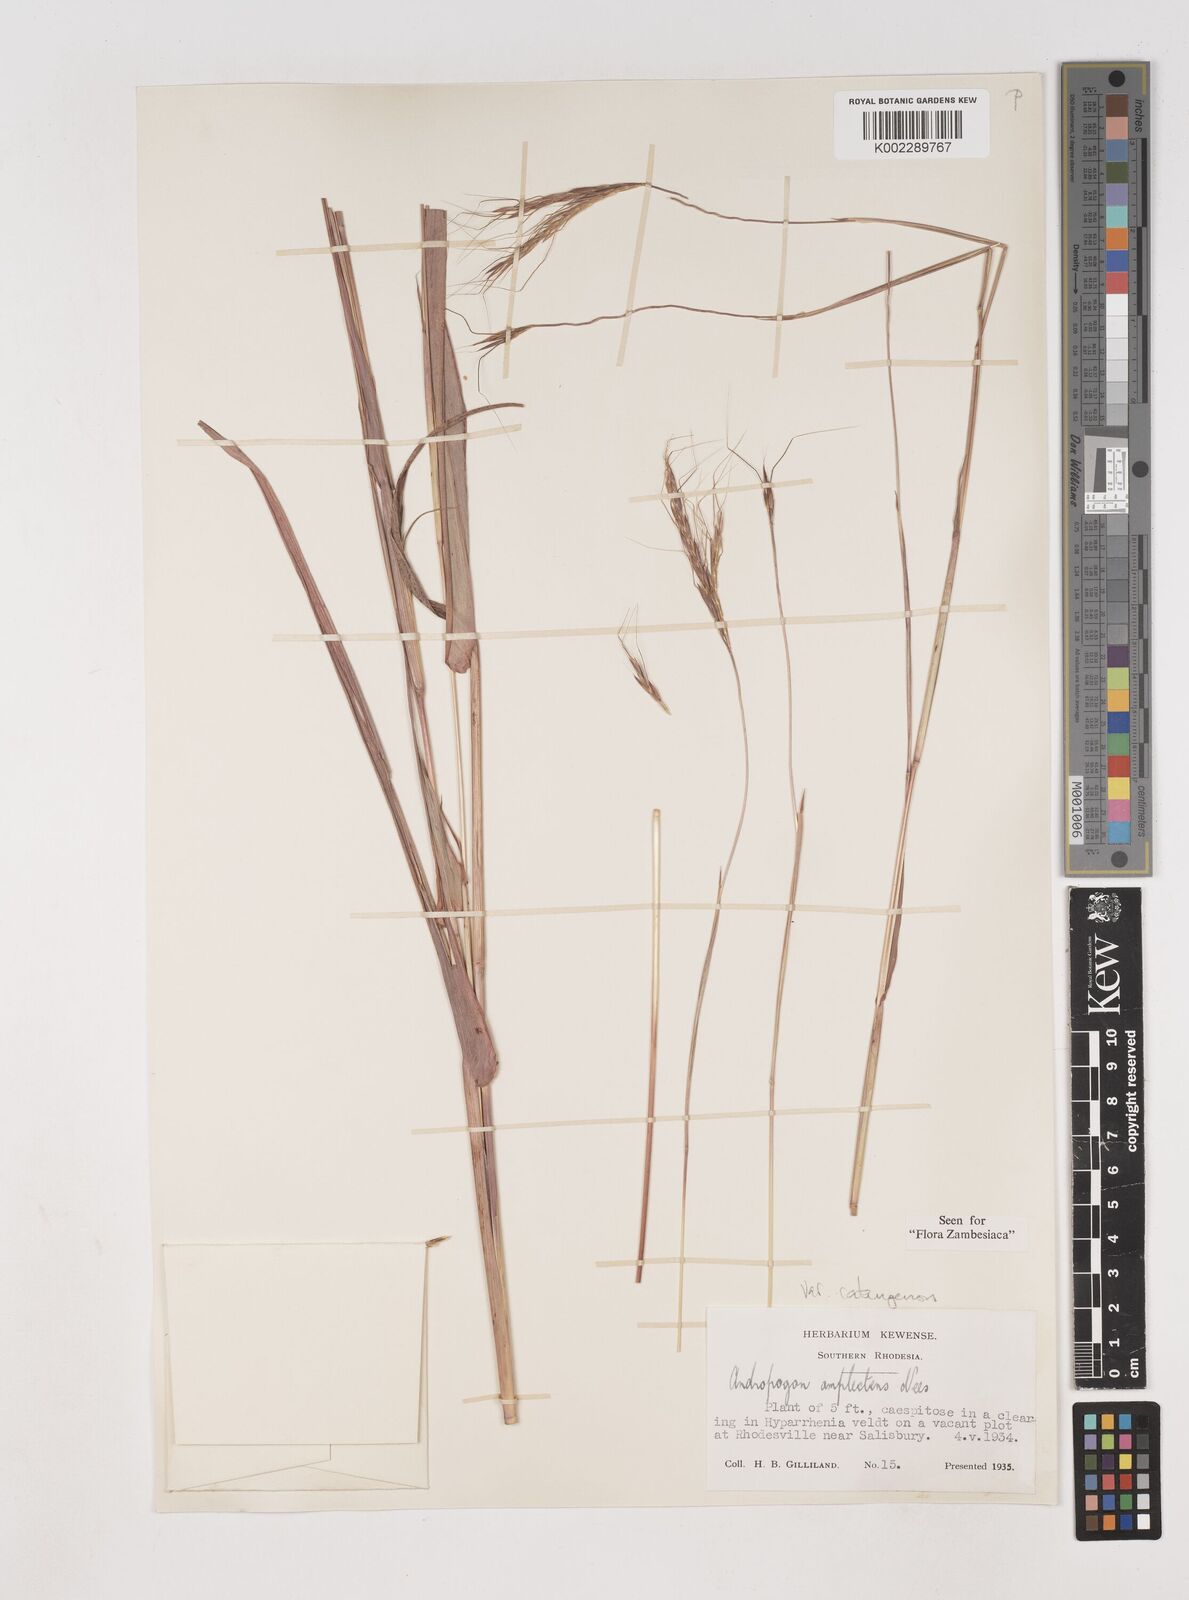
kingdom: Plantae
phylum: Tracheophyta
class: Liliopsida
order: Poales
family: Poaceae
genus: Diheteropogon
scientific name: Diheteropogon amplectens
